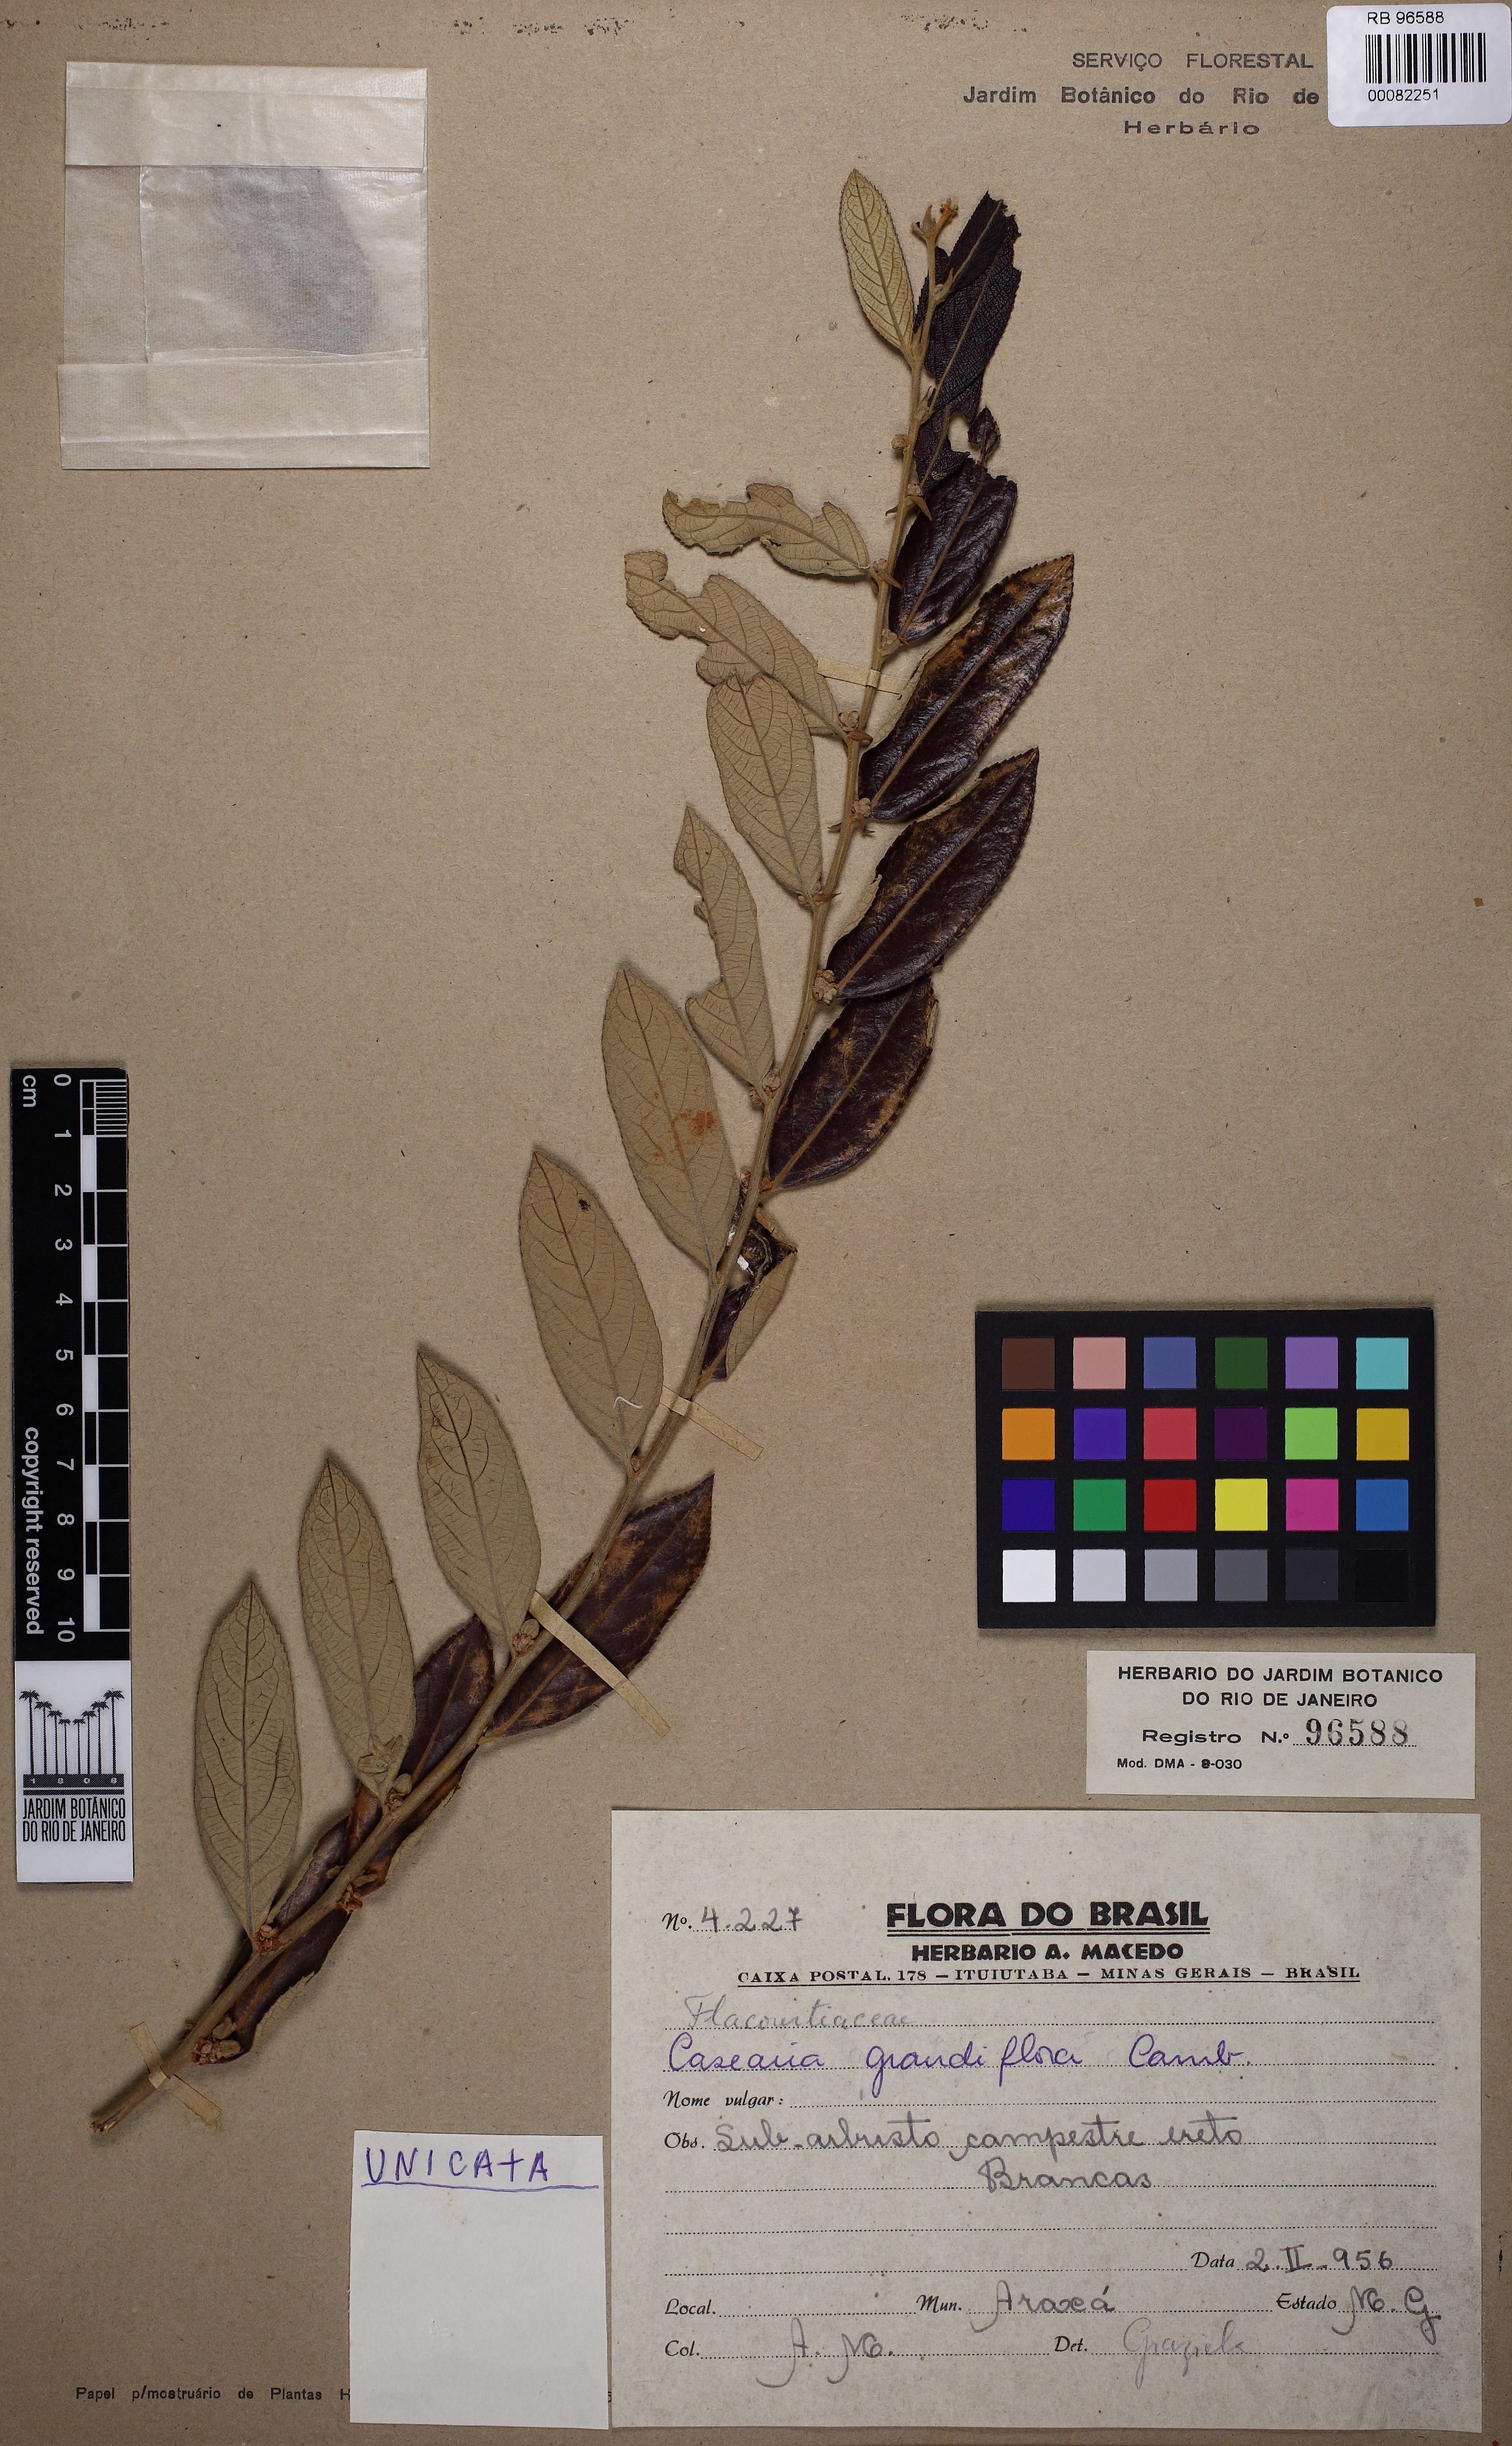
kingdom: Plantae
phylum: Tracheophyta
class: Magnoliopsida
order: Malpighiales
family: Salicaceae
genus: Casearia
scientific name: Casearia grandiflora
